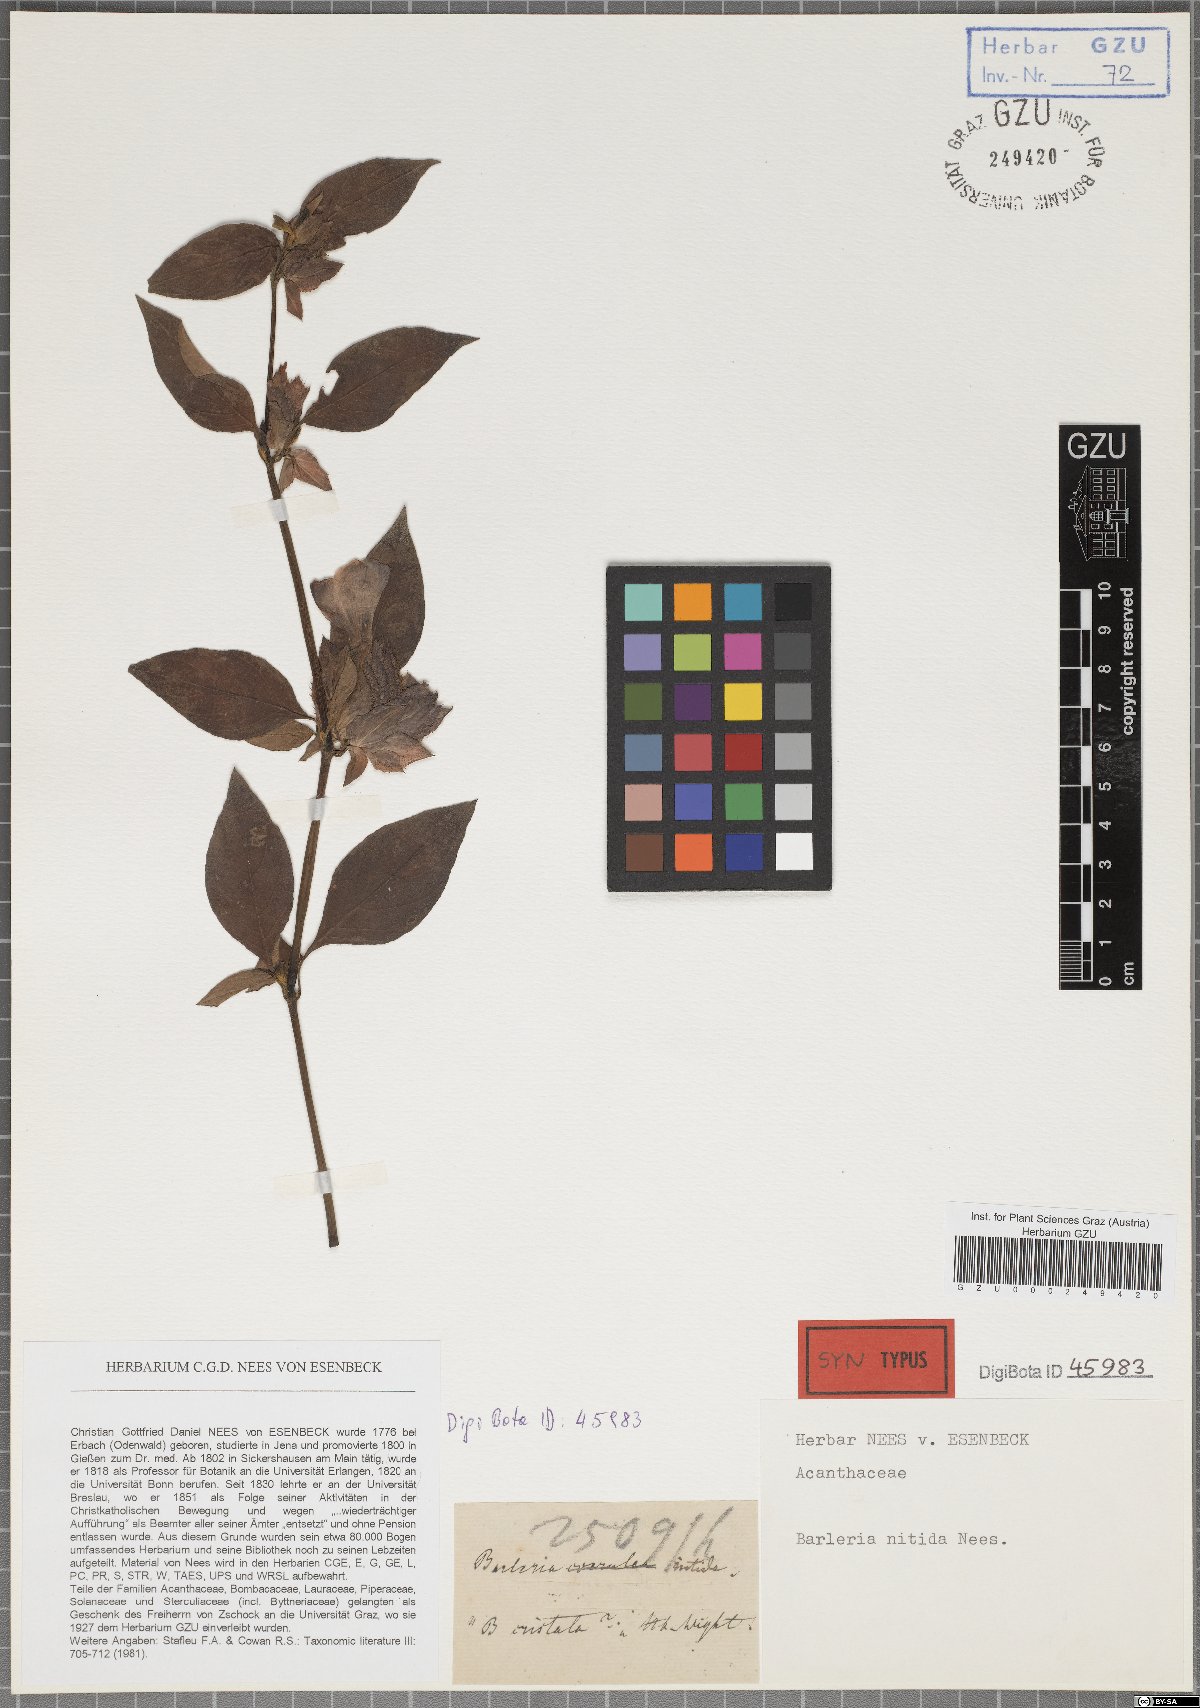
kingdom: Plantae
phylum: Tracheophyta
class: Magnoliopsida
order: Lamiales
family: Acanthaceae
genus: Barleria
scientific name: Barleria nitida
